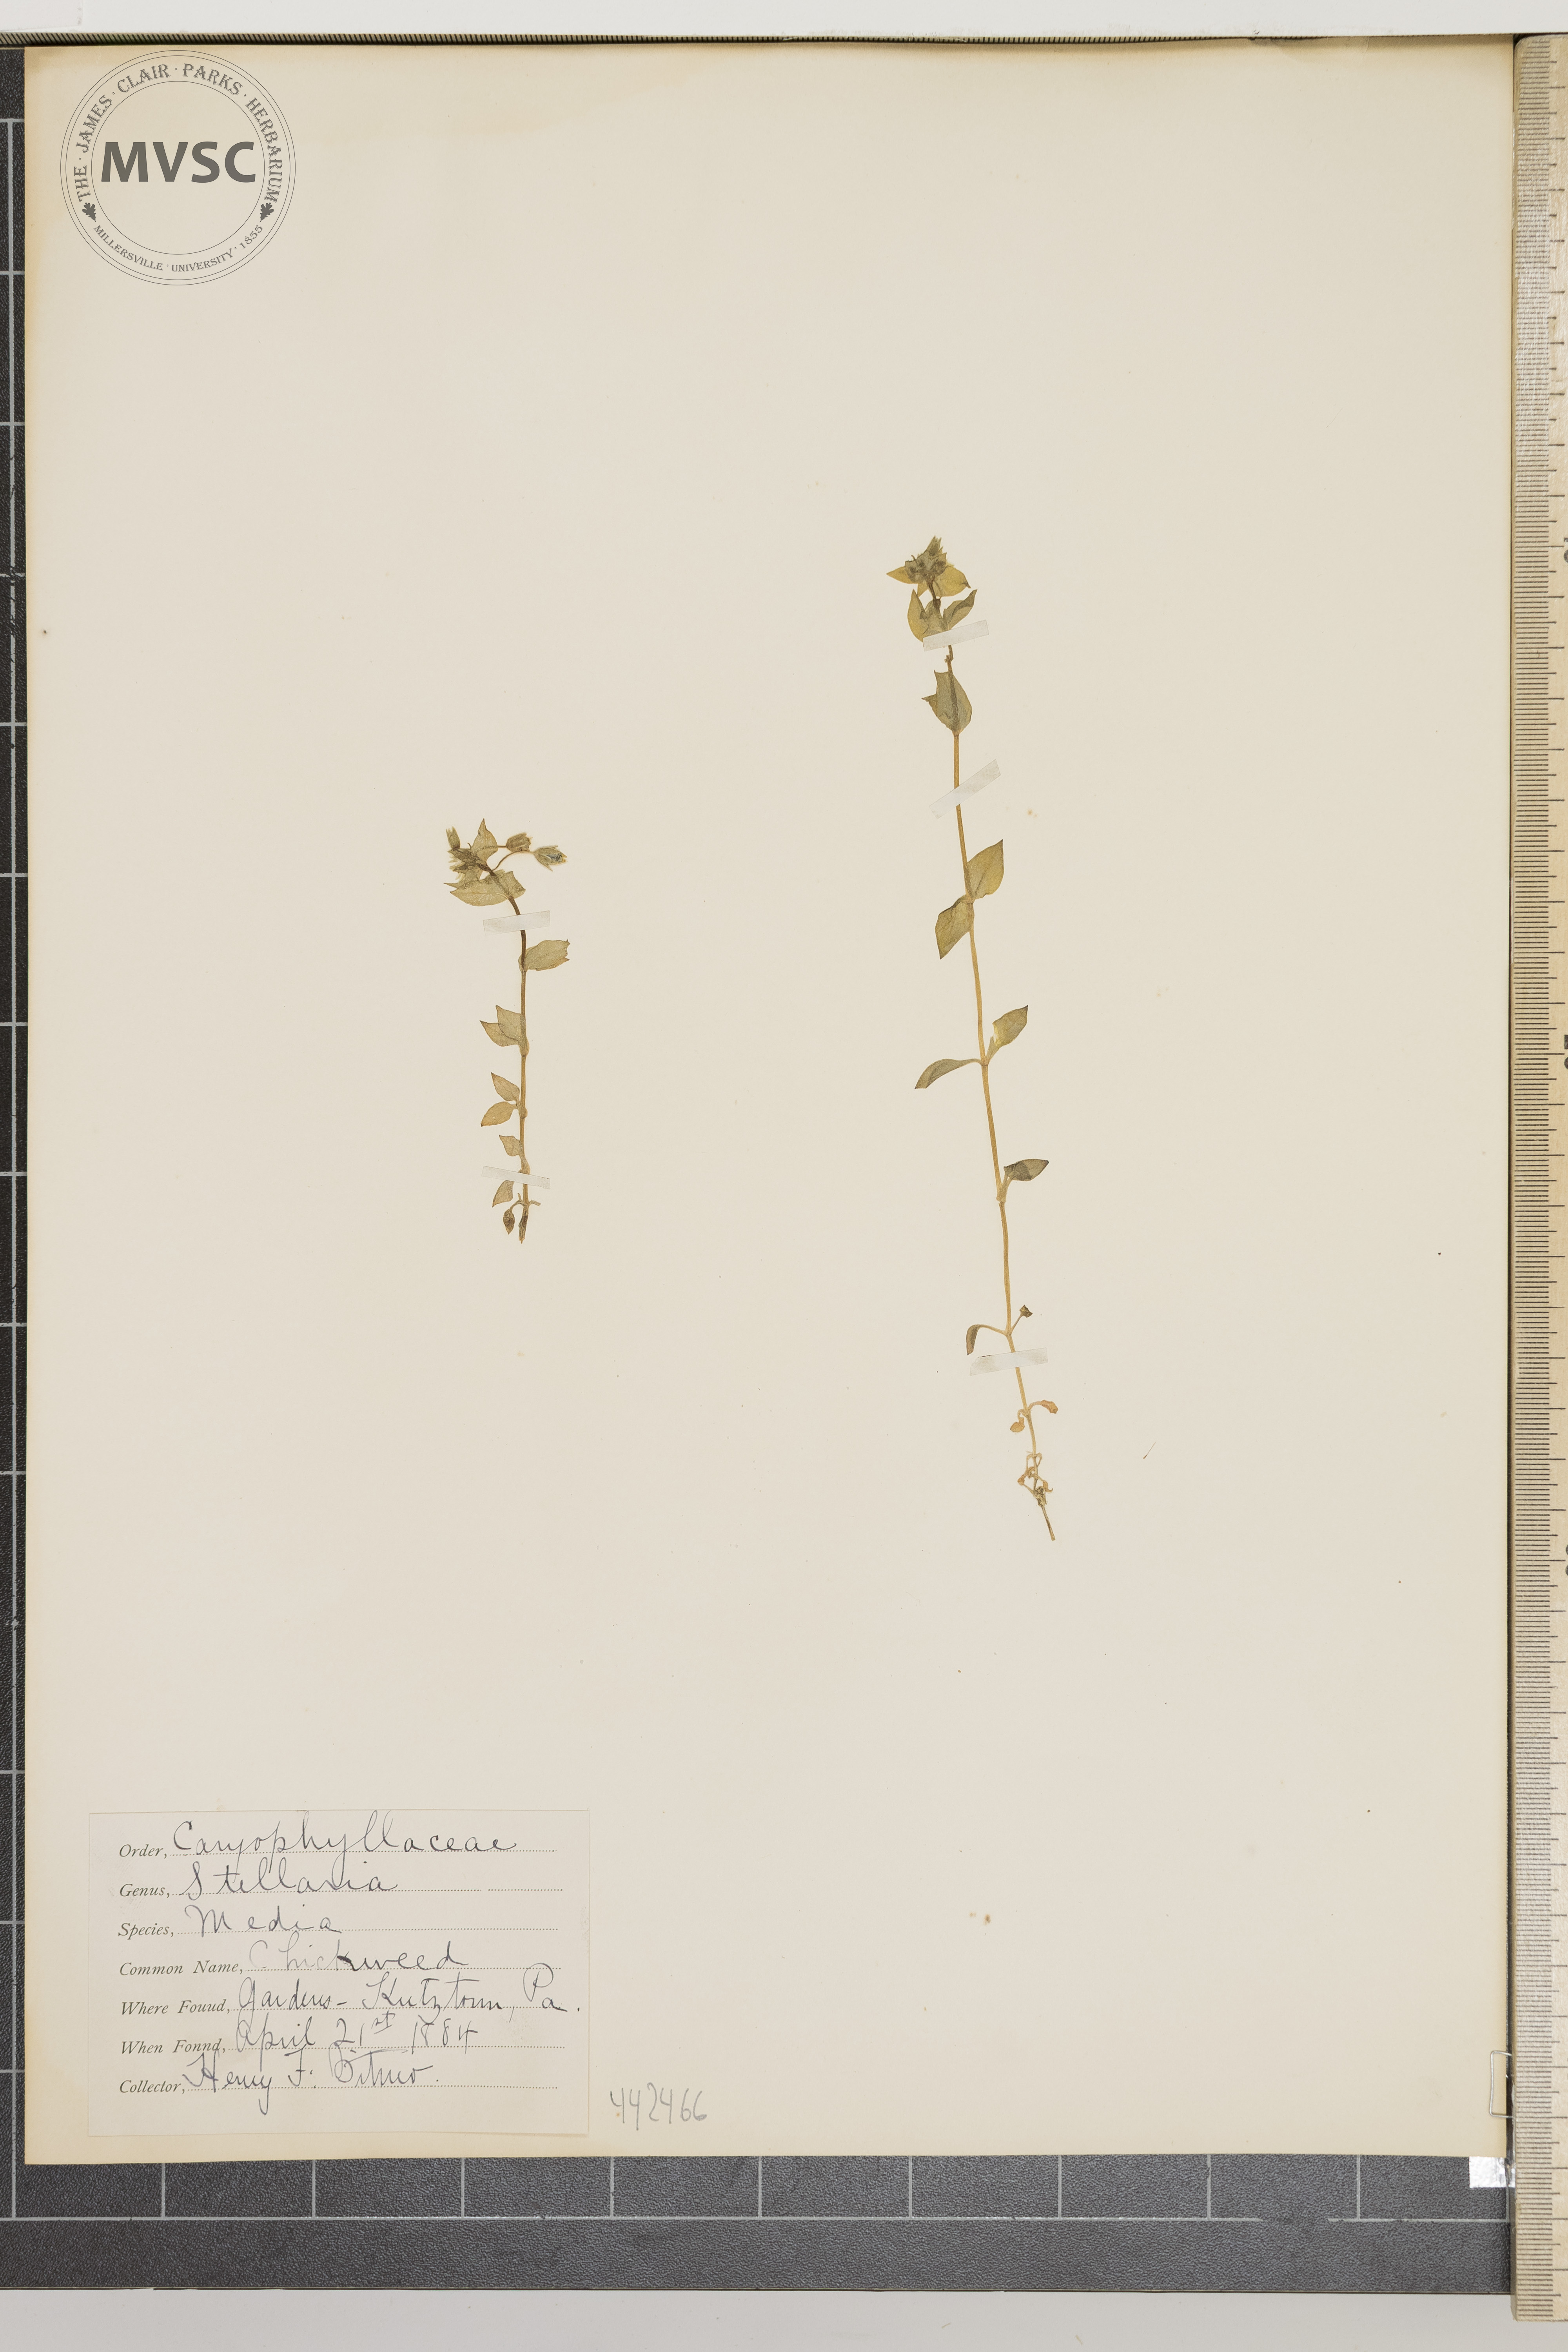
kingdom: Plantae
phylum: Tracheophyta
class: Magnoliopsida
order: Caryophyllales
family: Caryophyllaceae
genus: Stellaria
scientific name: Stellaria media
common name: Chickweed
